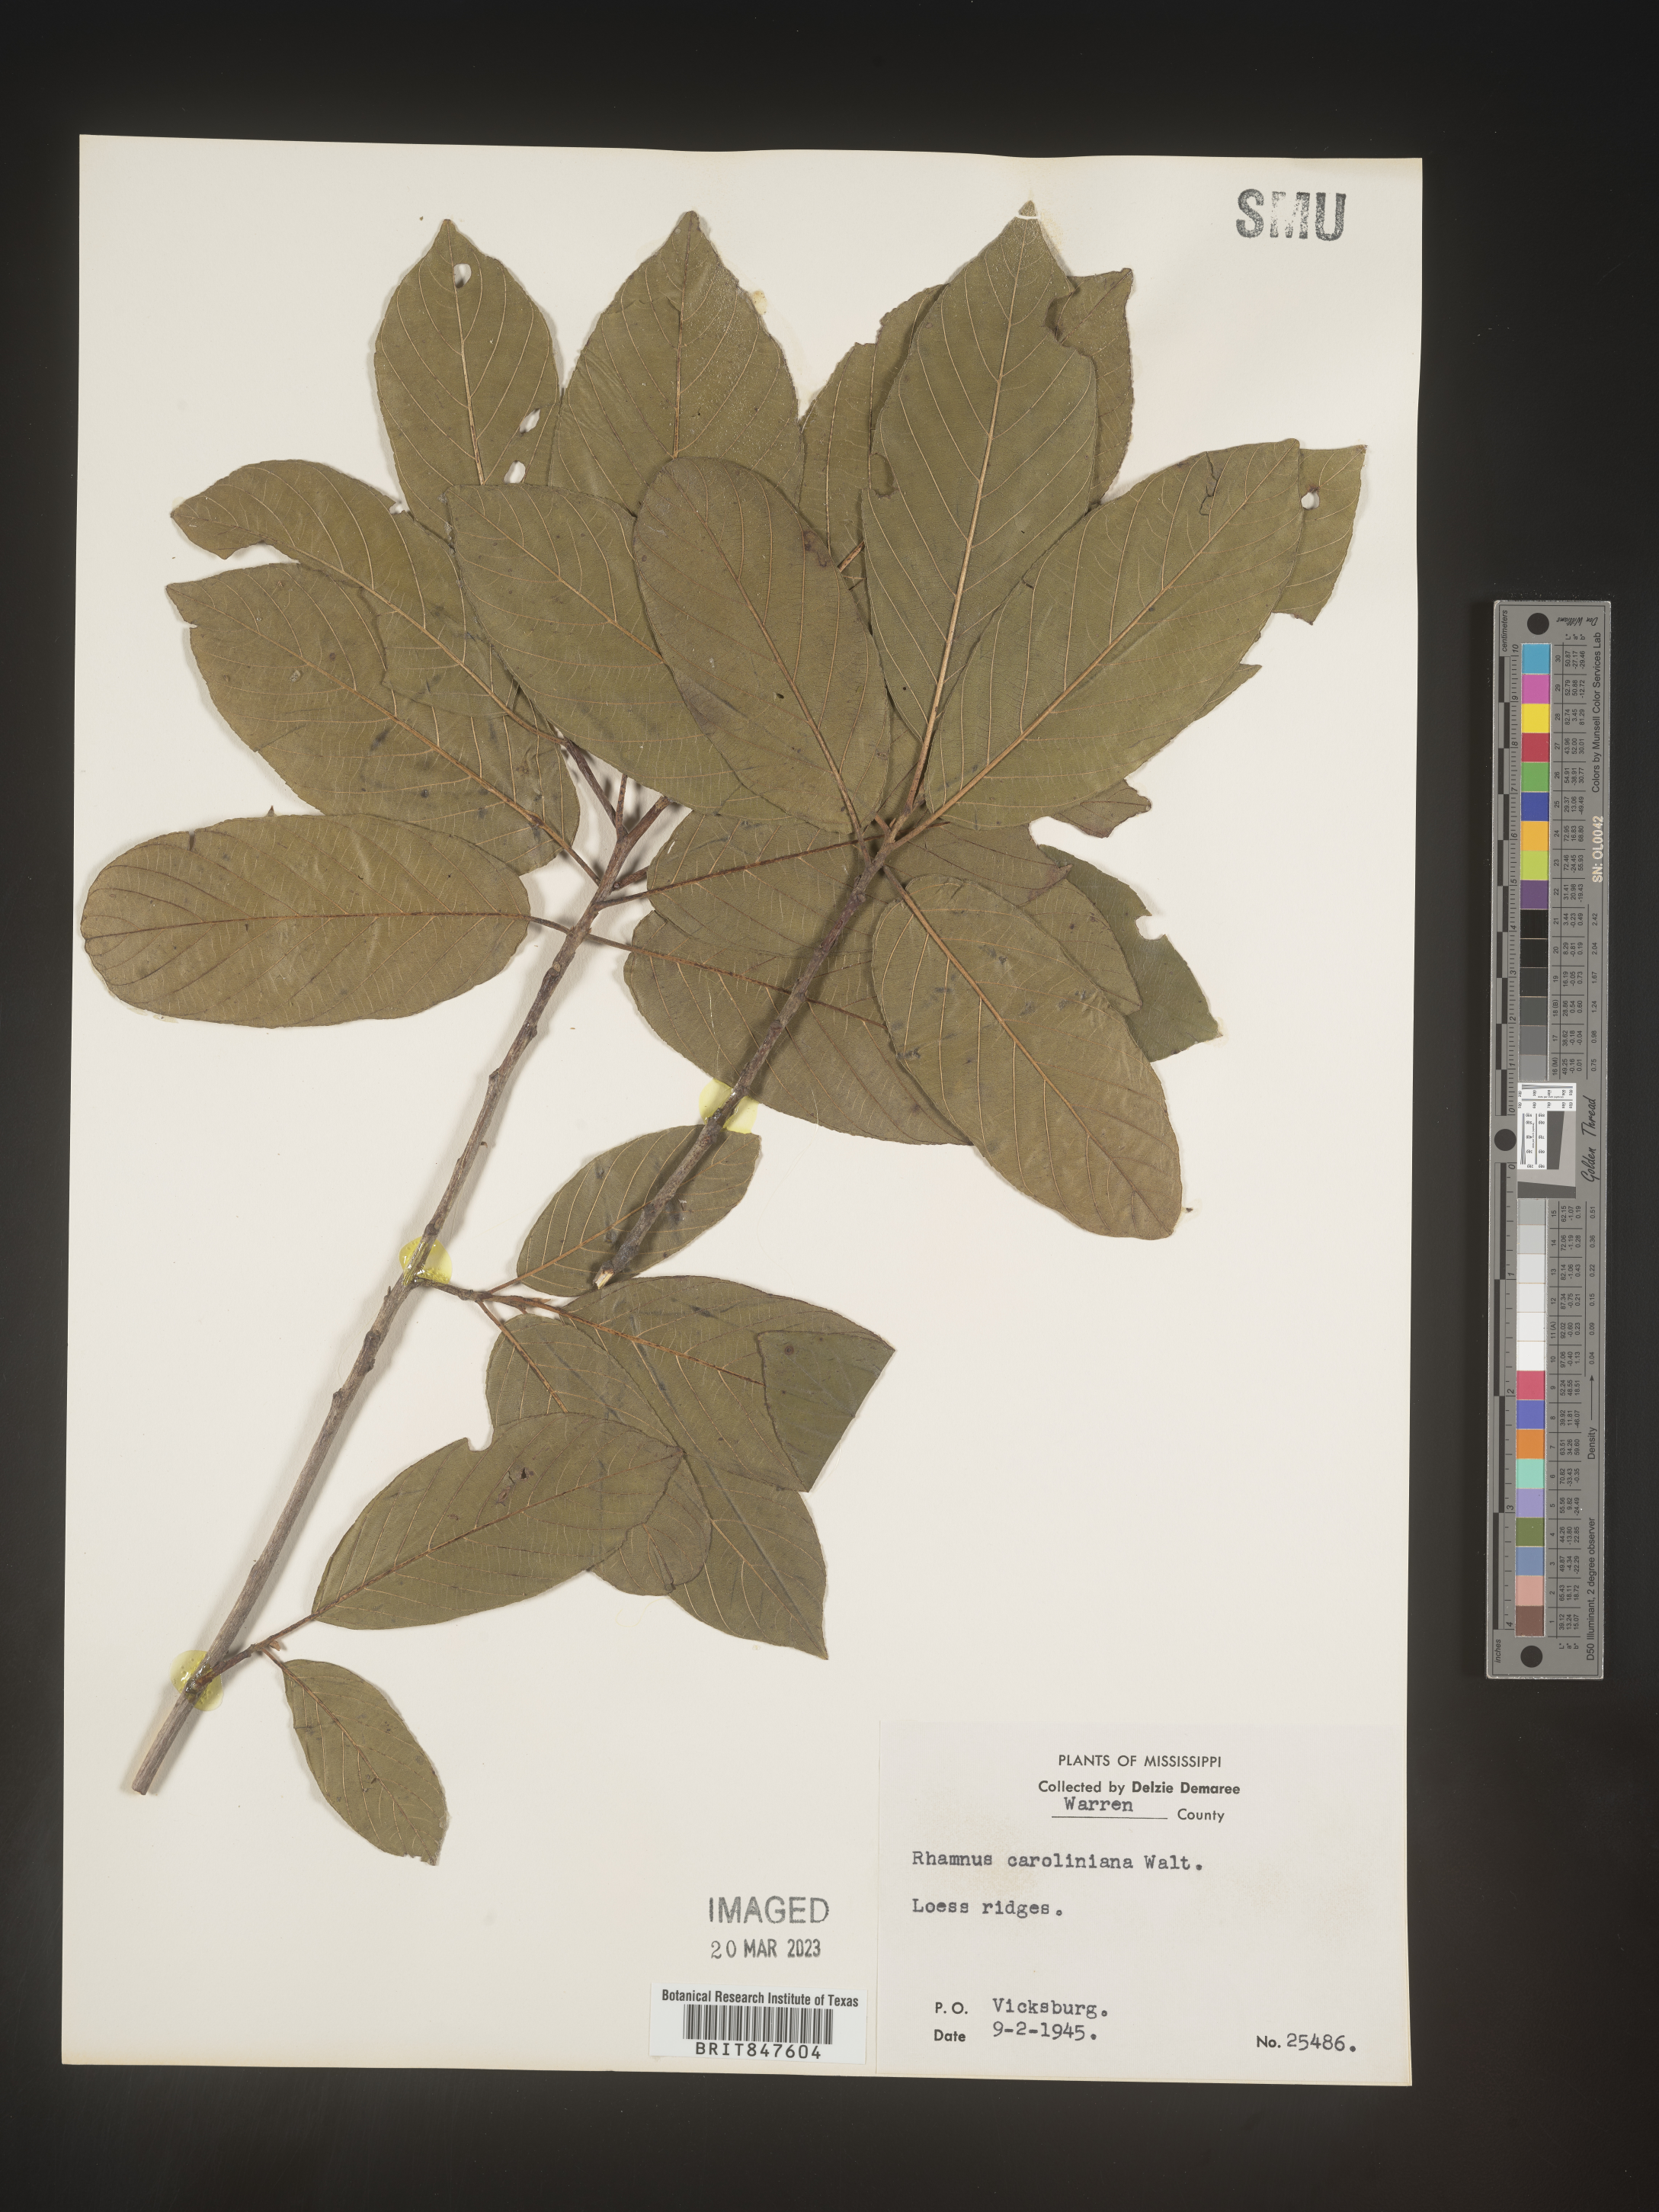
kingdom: Plantae
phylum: Tracheophyta
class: Magnoliopsida
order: Rosales
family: Rhamnaceae
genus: Frangula
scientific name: Frangula caroliniana
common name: Carolina buckthorn
